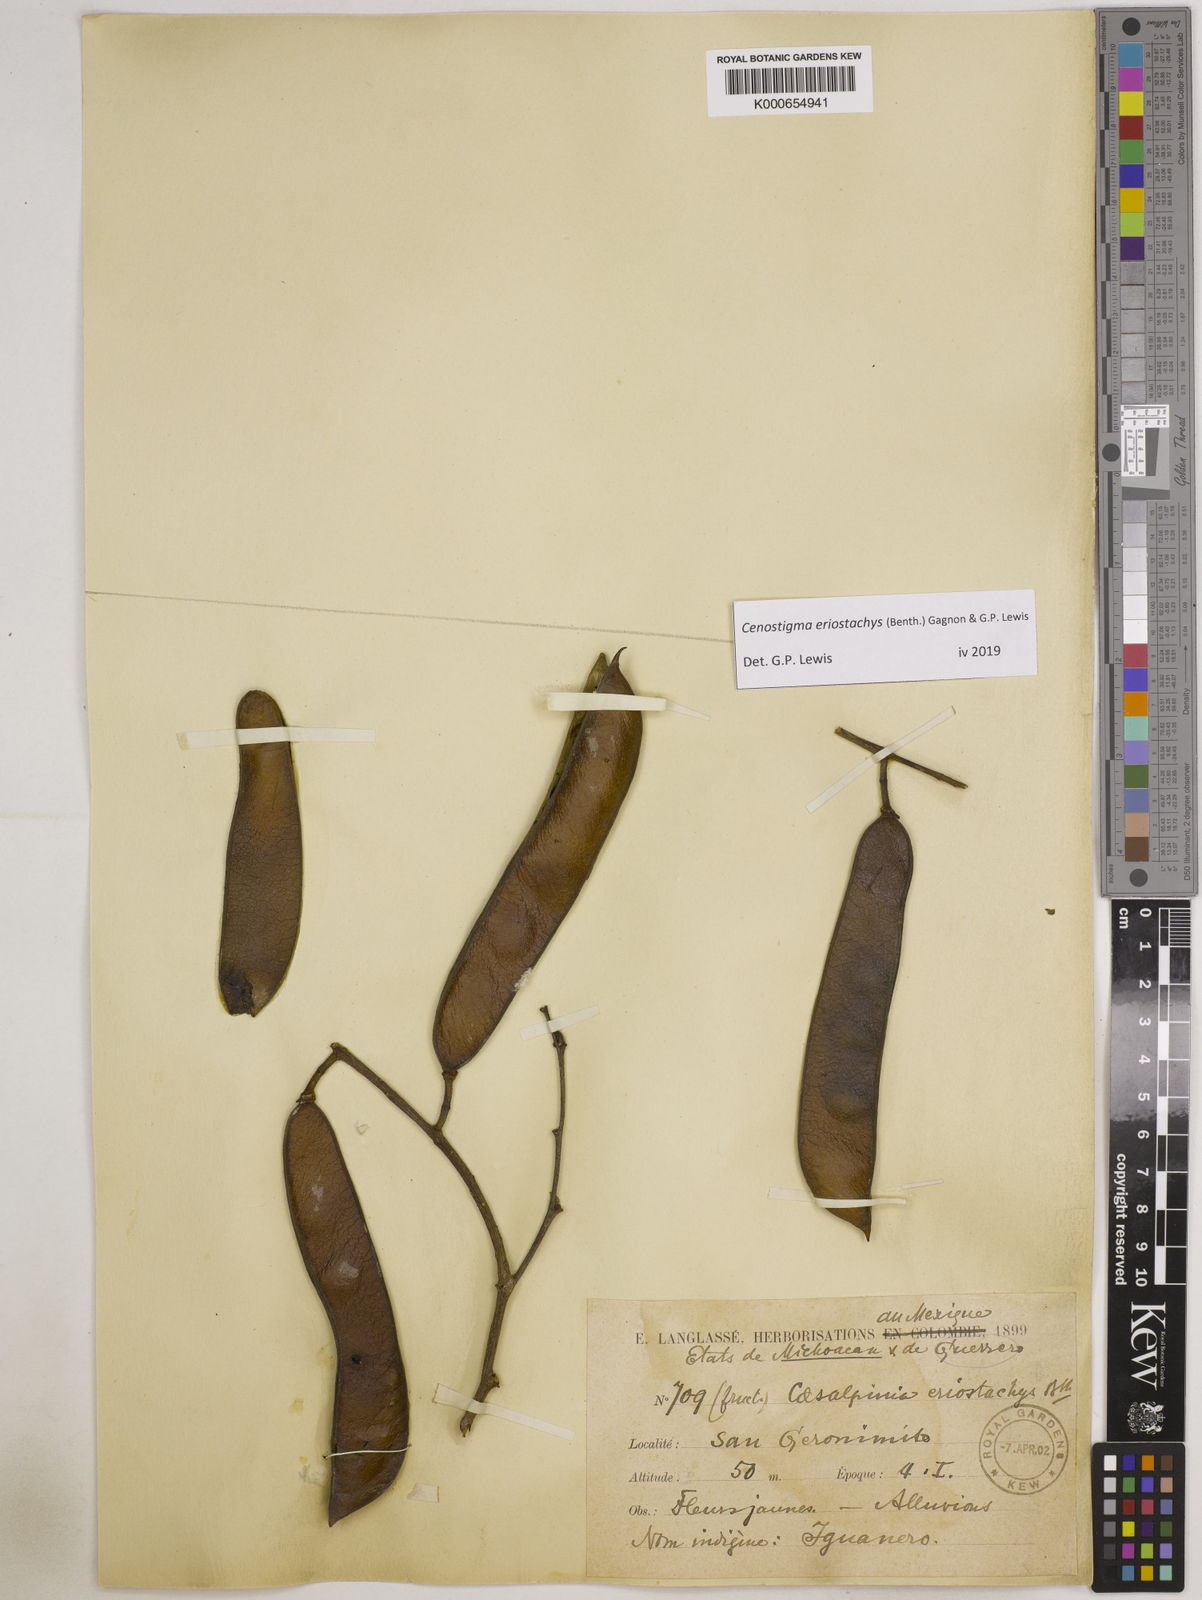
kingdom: Plantae
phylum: Tracheophyta
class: Magnoliopsida
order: Fabales
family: Fabaceae
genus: Cenostigma
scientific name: Cenostigma eriostachys
